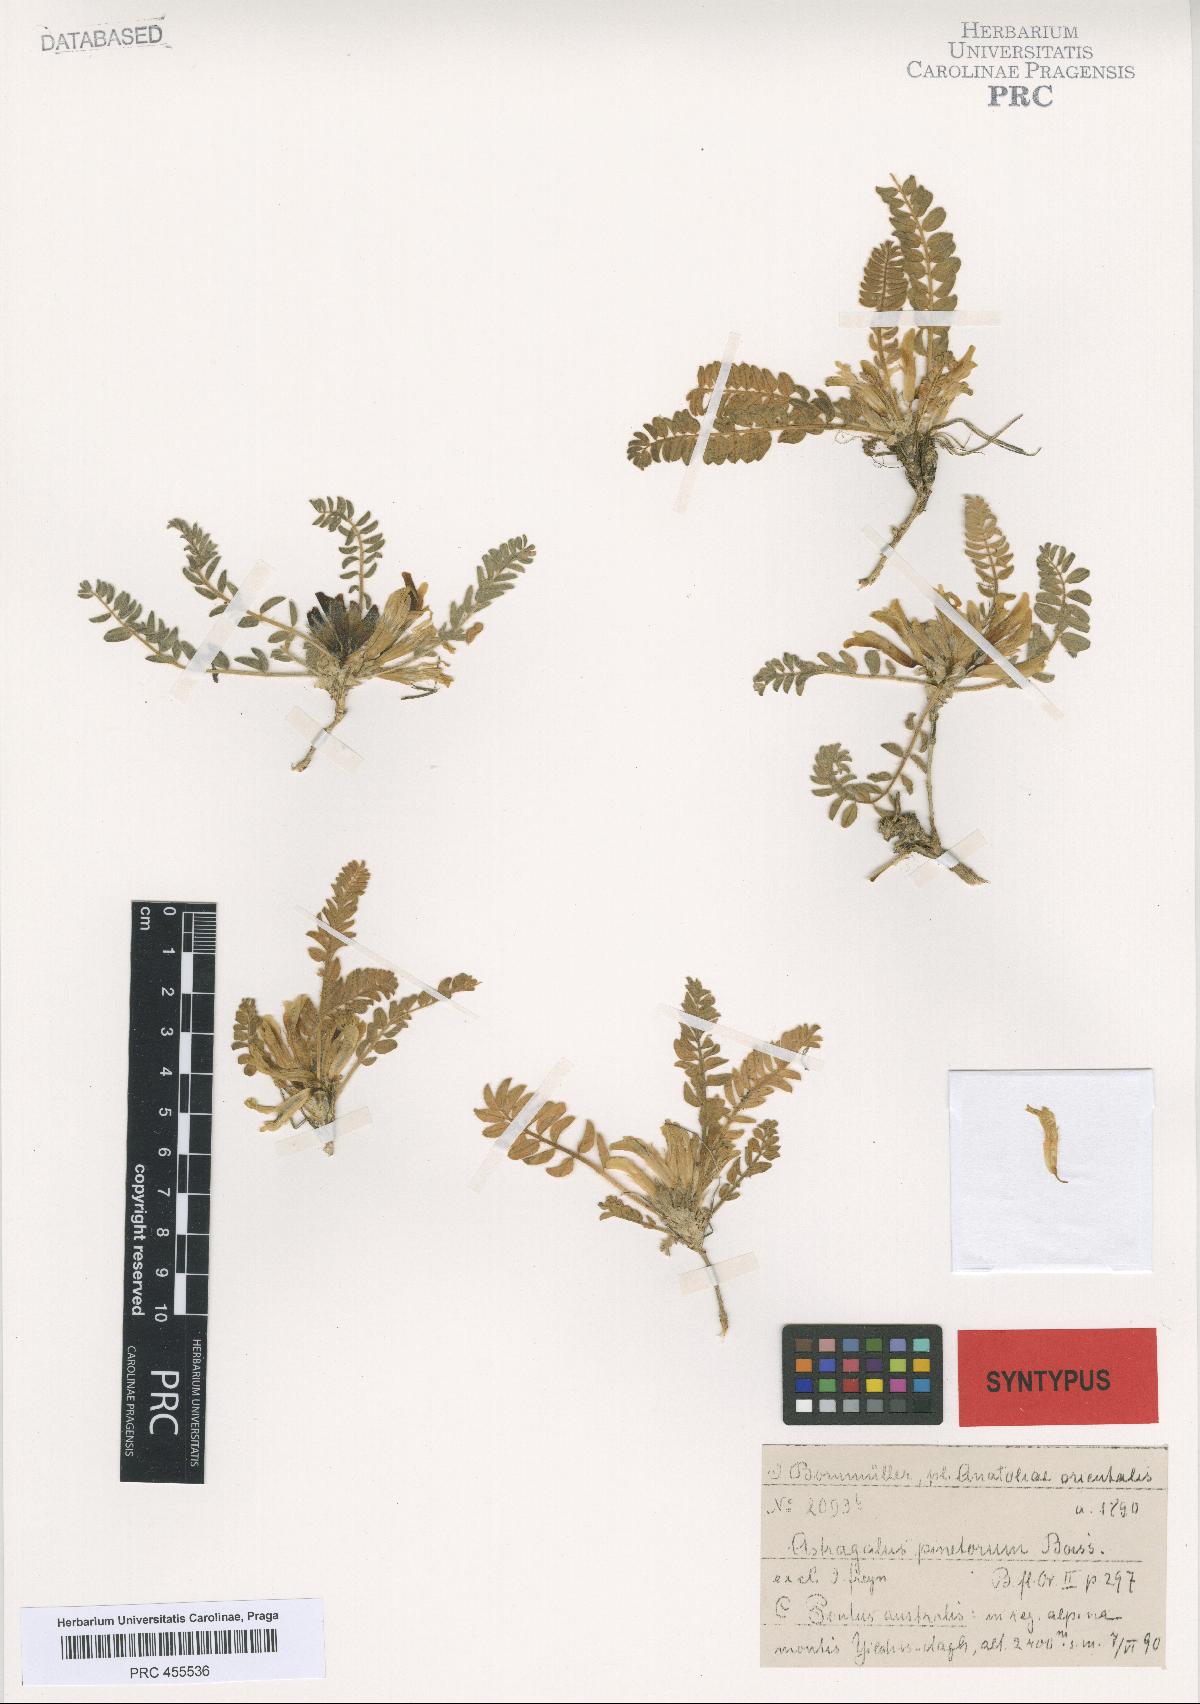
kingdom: Plantae
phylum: Tracheophyta
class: Magnoliopsida
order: Fabales
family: Fabaceae
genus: Astragalus
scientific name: Astragalus pinetorum
